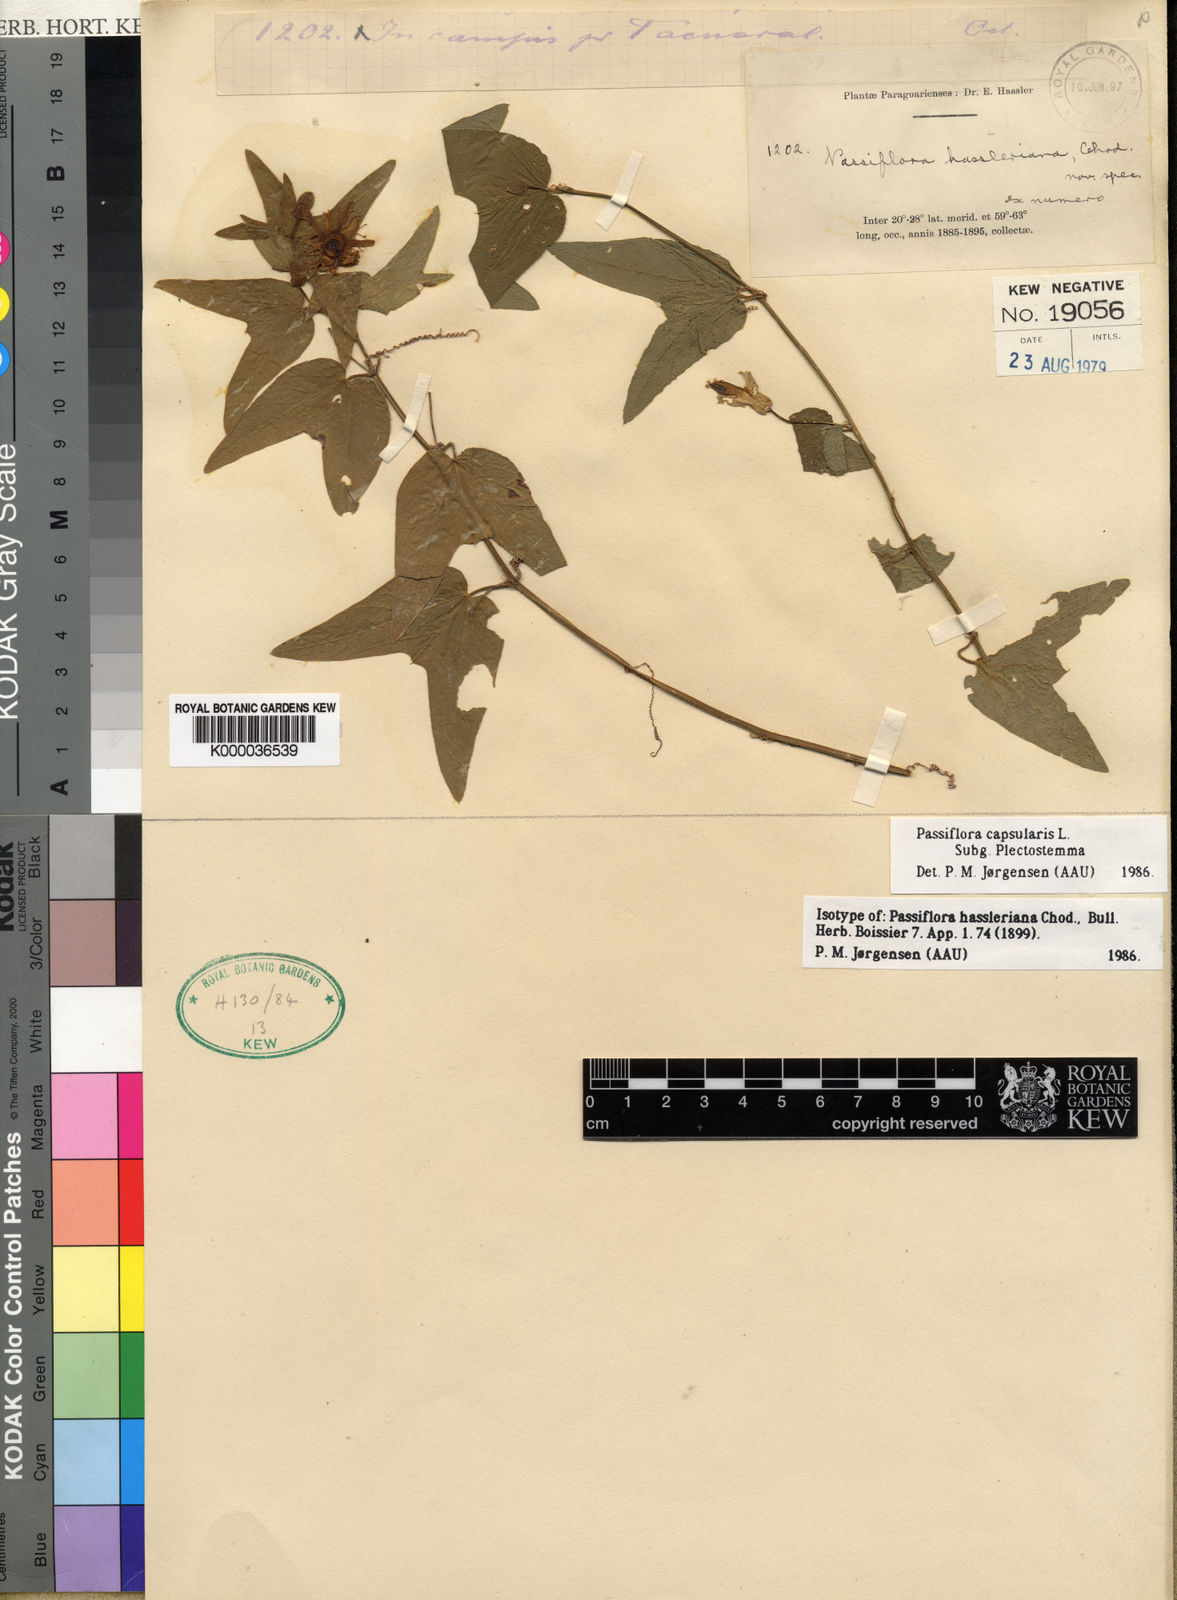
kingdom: Plantae
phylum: Tracheophyta
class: Magnoliopsida
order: Malpighiales
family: Passifloraceae
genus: Passiflora
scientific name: Passiflora capsularis
